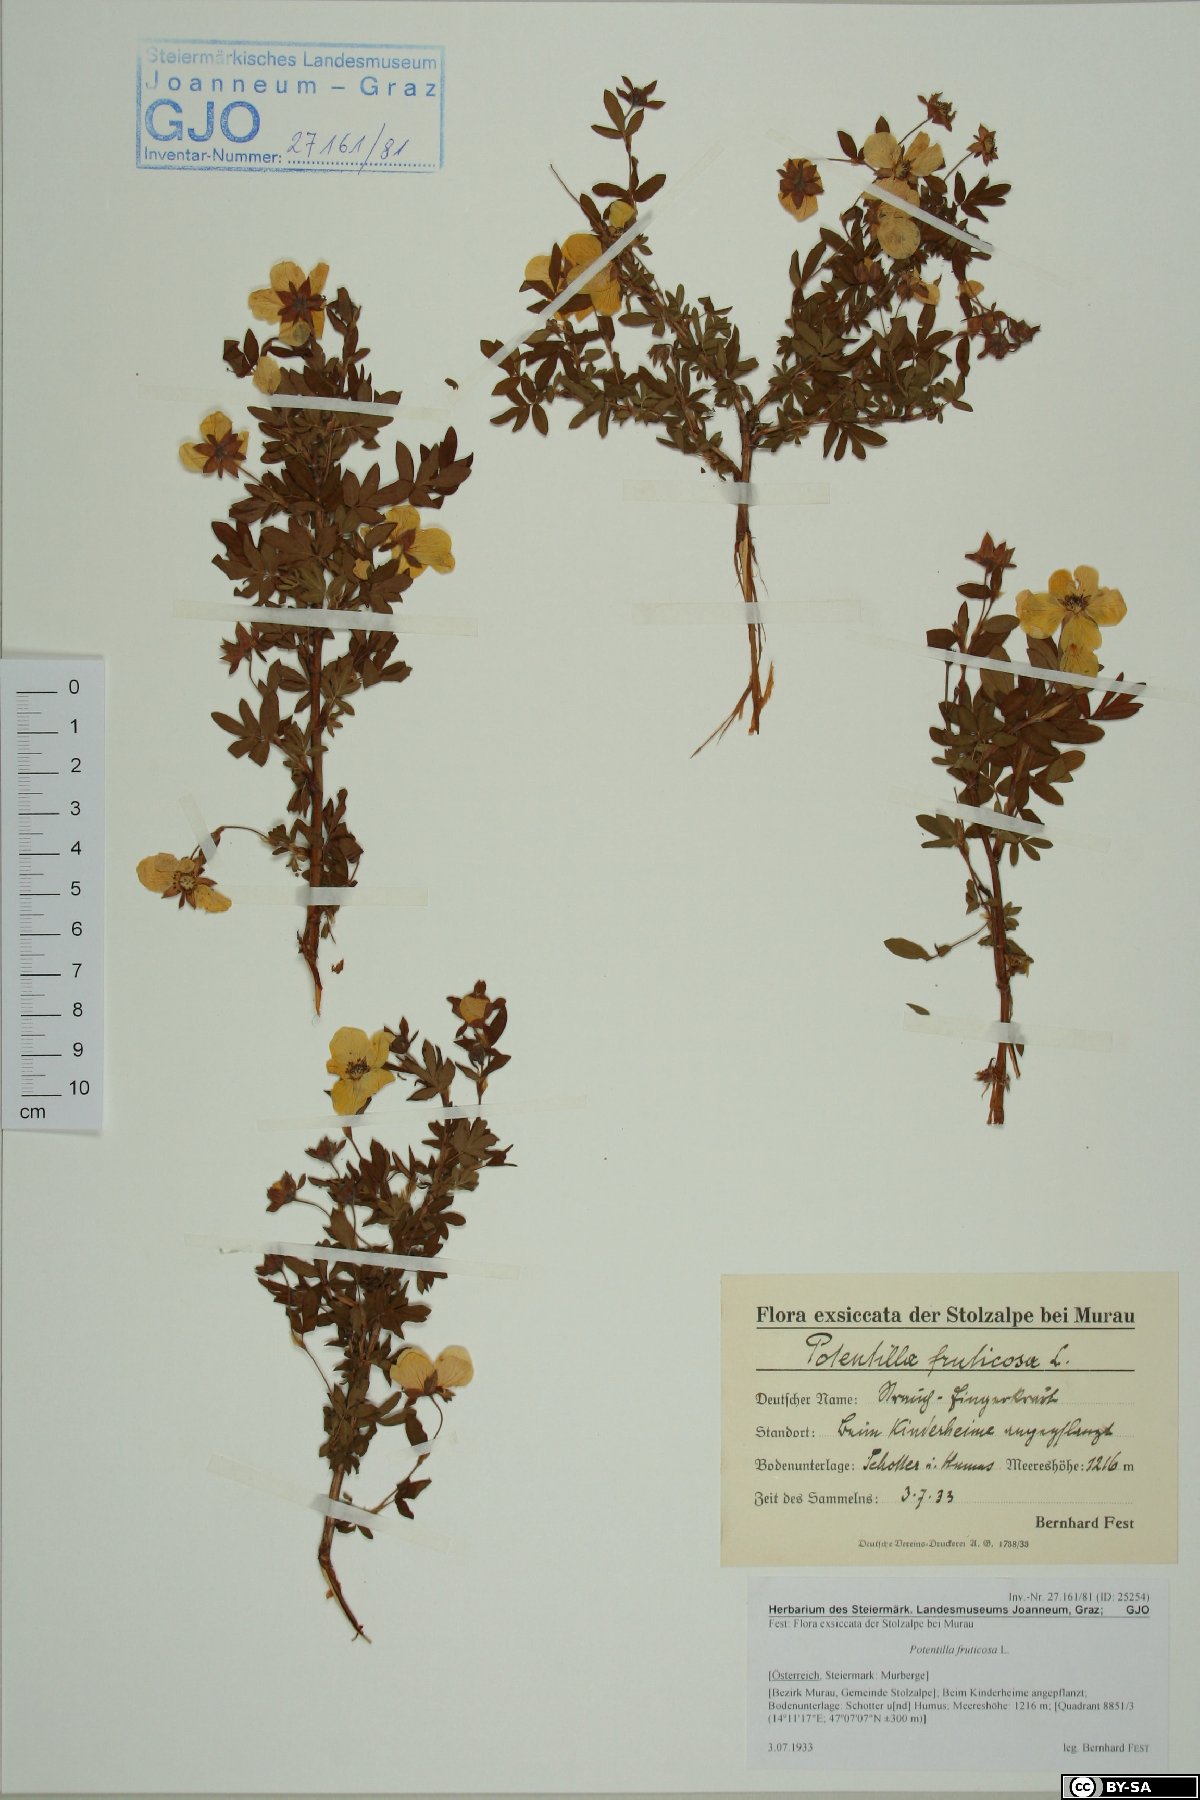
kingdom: Plantae
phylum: Tracheophyta
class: Magnoliopsida
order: Rosales
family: Rosaceae
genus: Dasiphora
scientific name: Dasiphora fruticosa
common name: Shrubby cinquefoil
